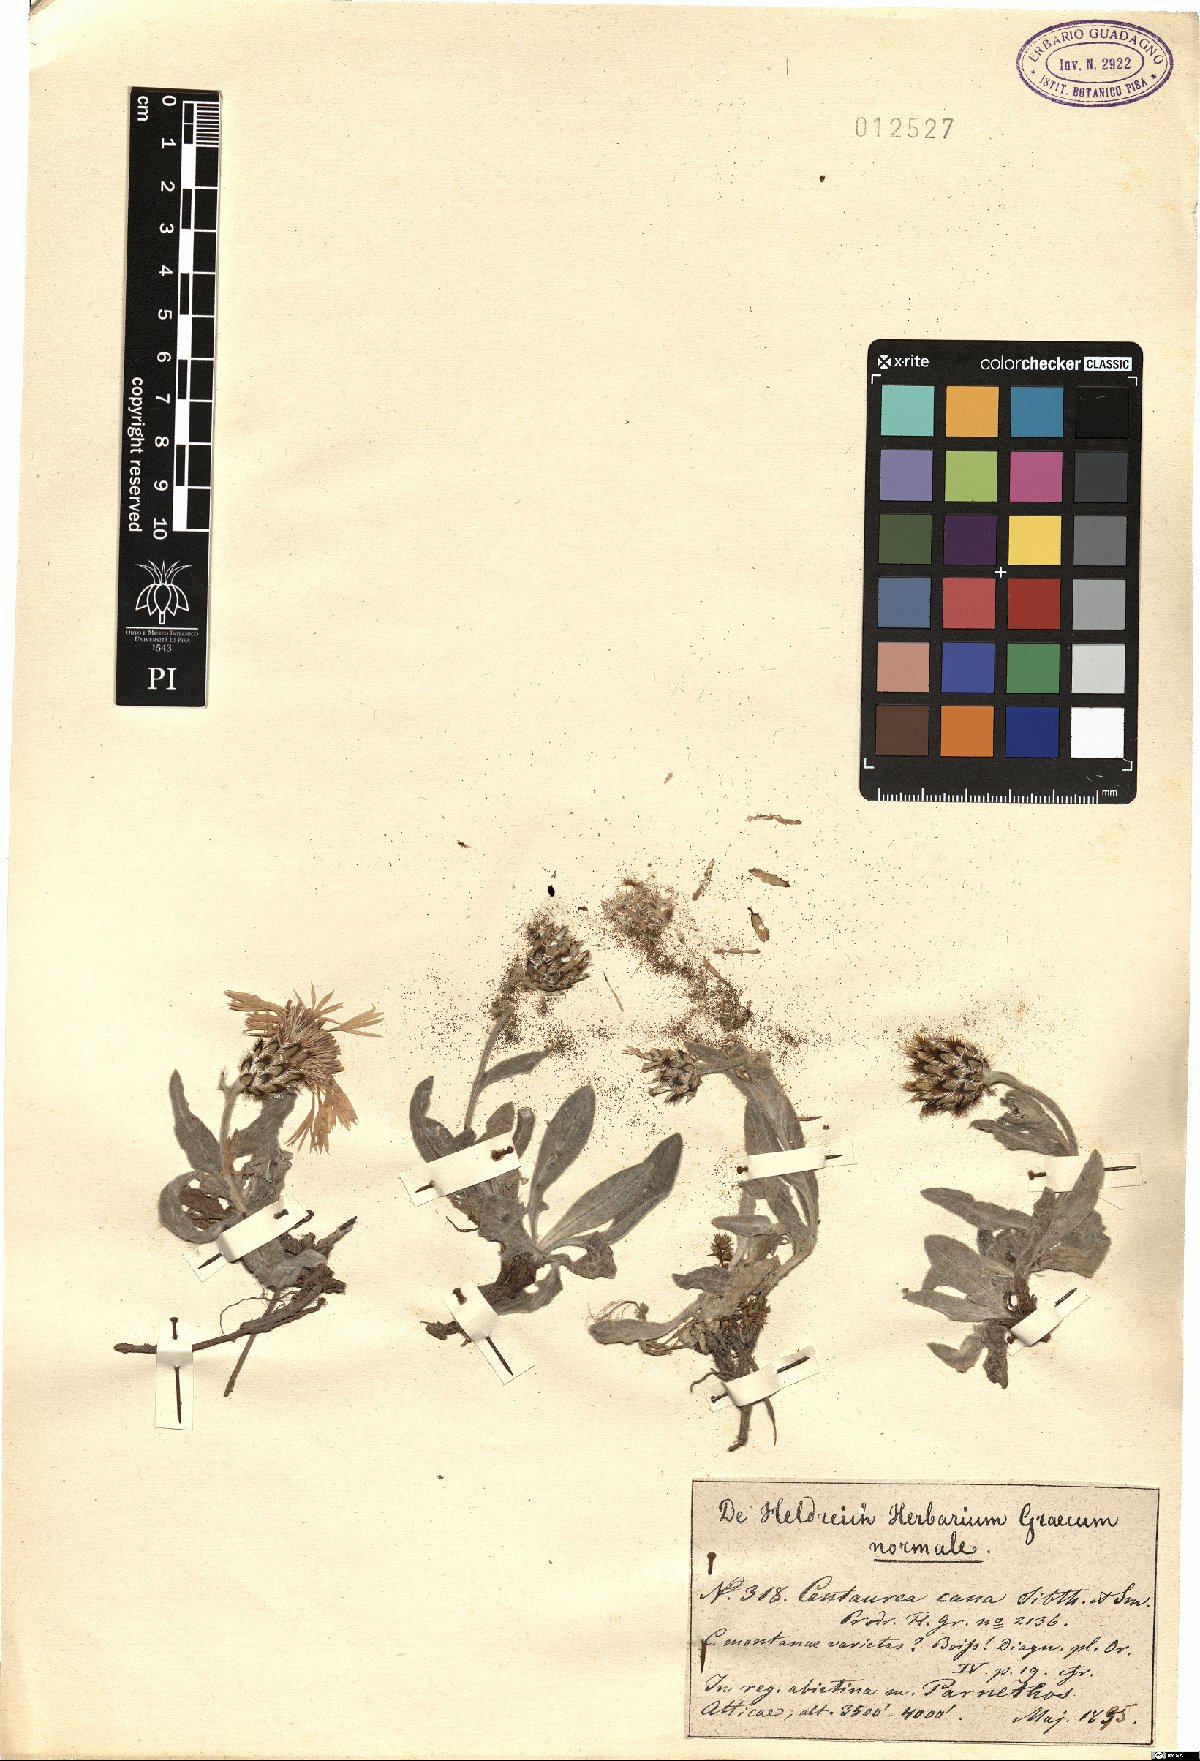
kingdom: Plantae
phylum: Tracheophyta
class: Magnoliopsida
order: Asterales
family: Asteraceae
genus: Centaurea
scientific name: Centaurea triumfettii
